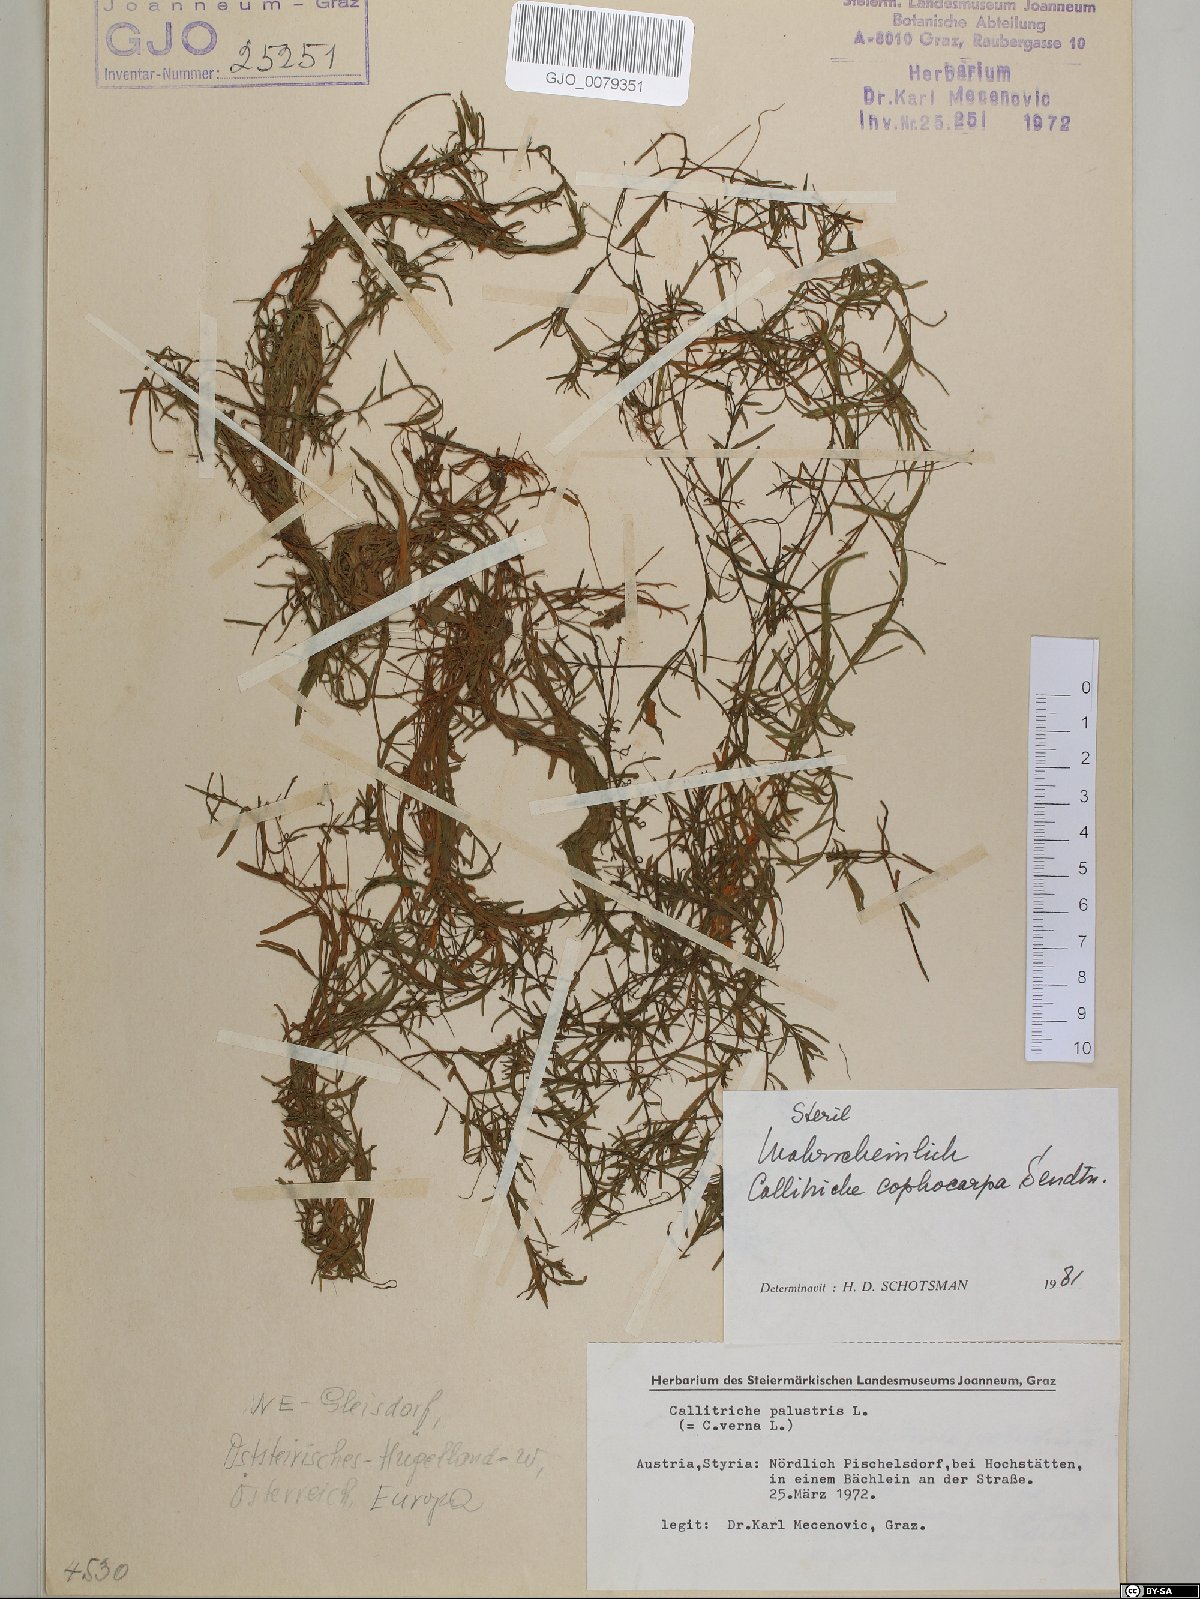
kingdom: Plantae
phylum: Tracheophyta
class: Magnoliopsida
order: Lamiales
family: Plantaginaceae
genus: Callitriche
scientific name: Callitriche cophocarpa
